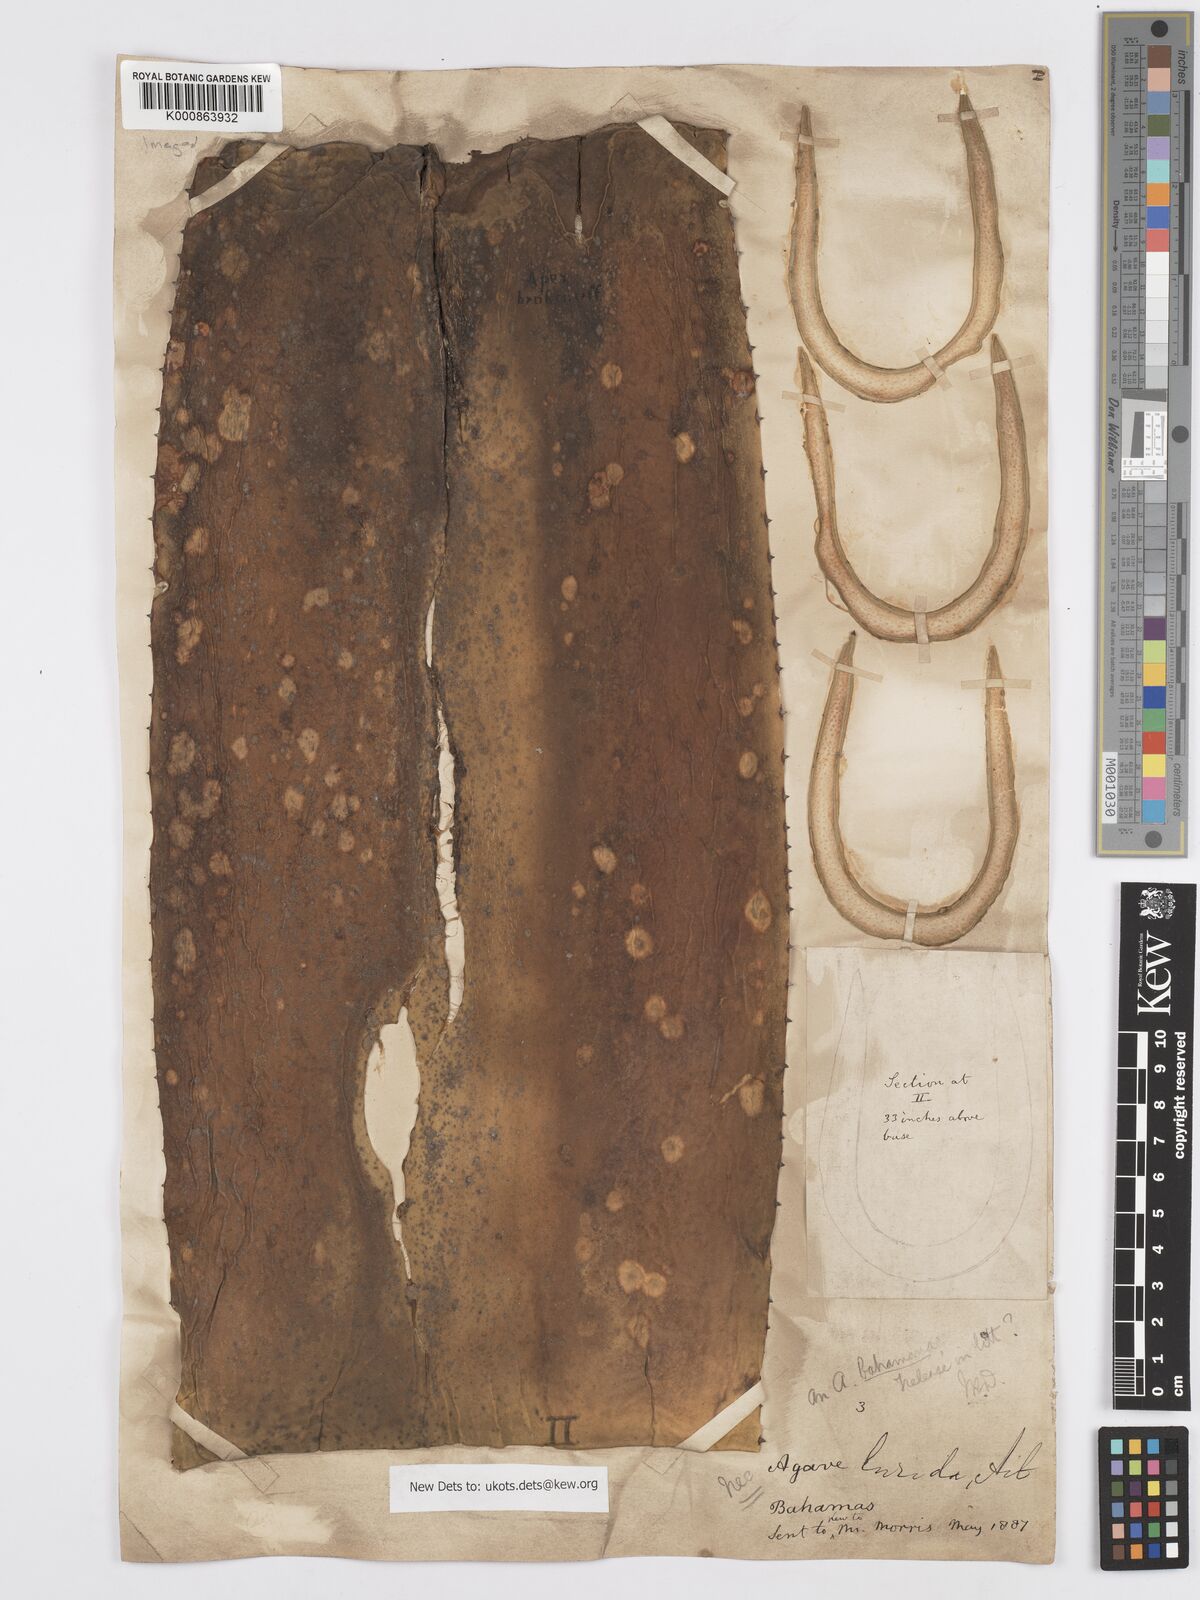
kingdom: Plantae
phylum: Tracheophyta
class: Liliopsida
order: Asparagales
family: Asparagaceae
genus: Agave
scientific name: Agave bahamana
